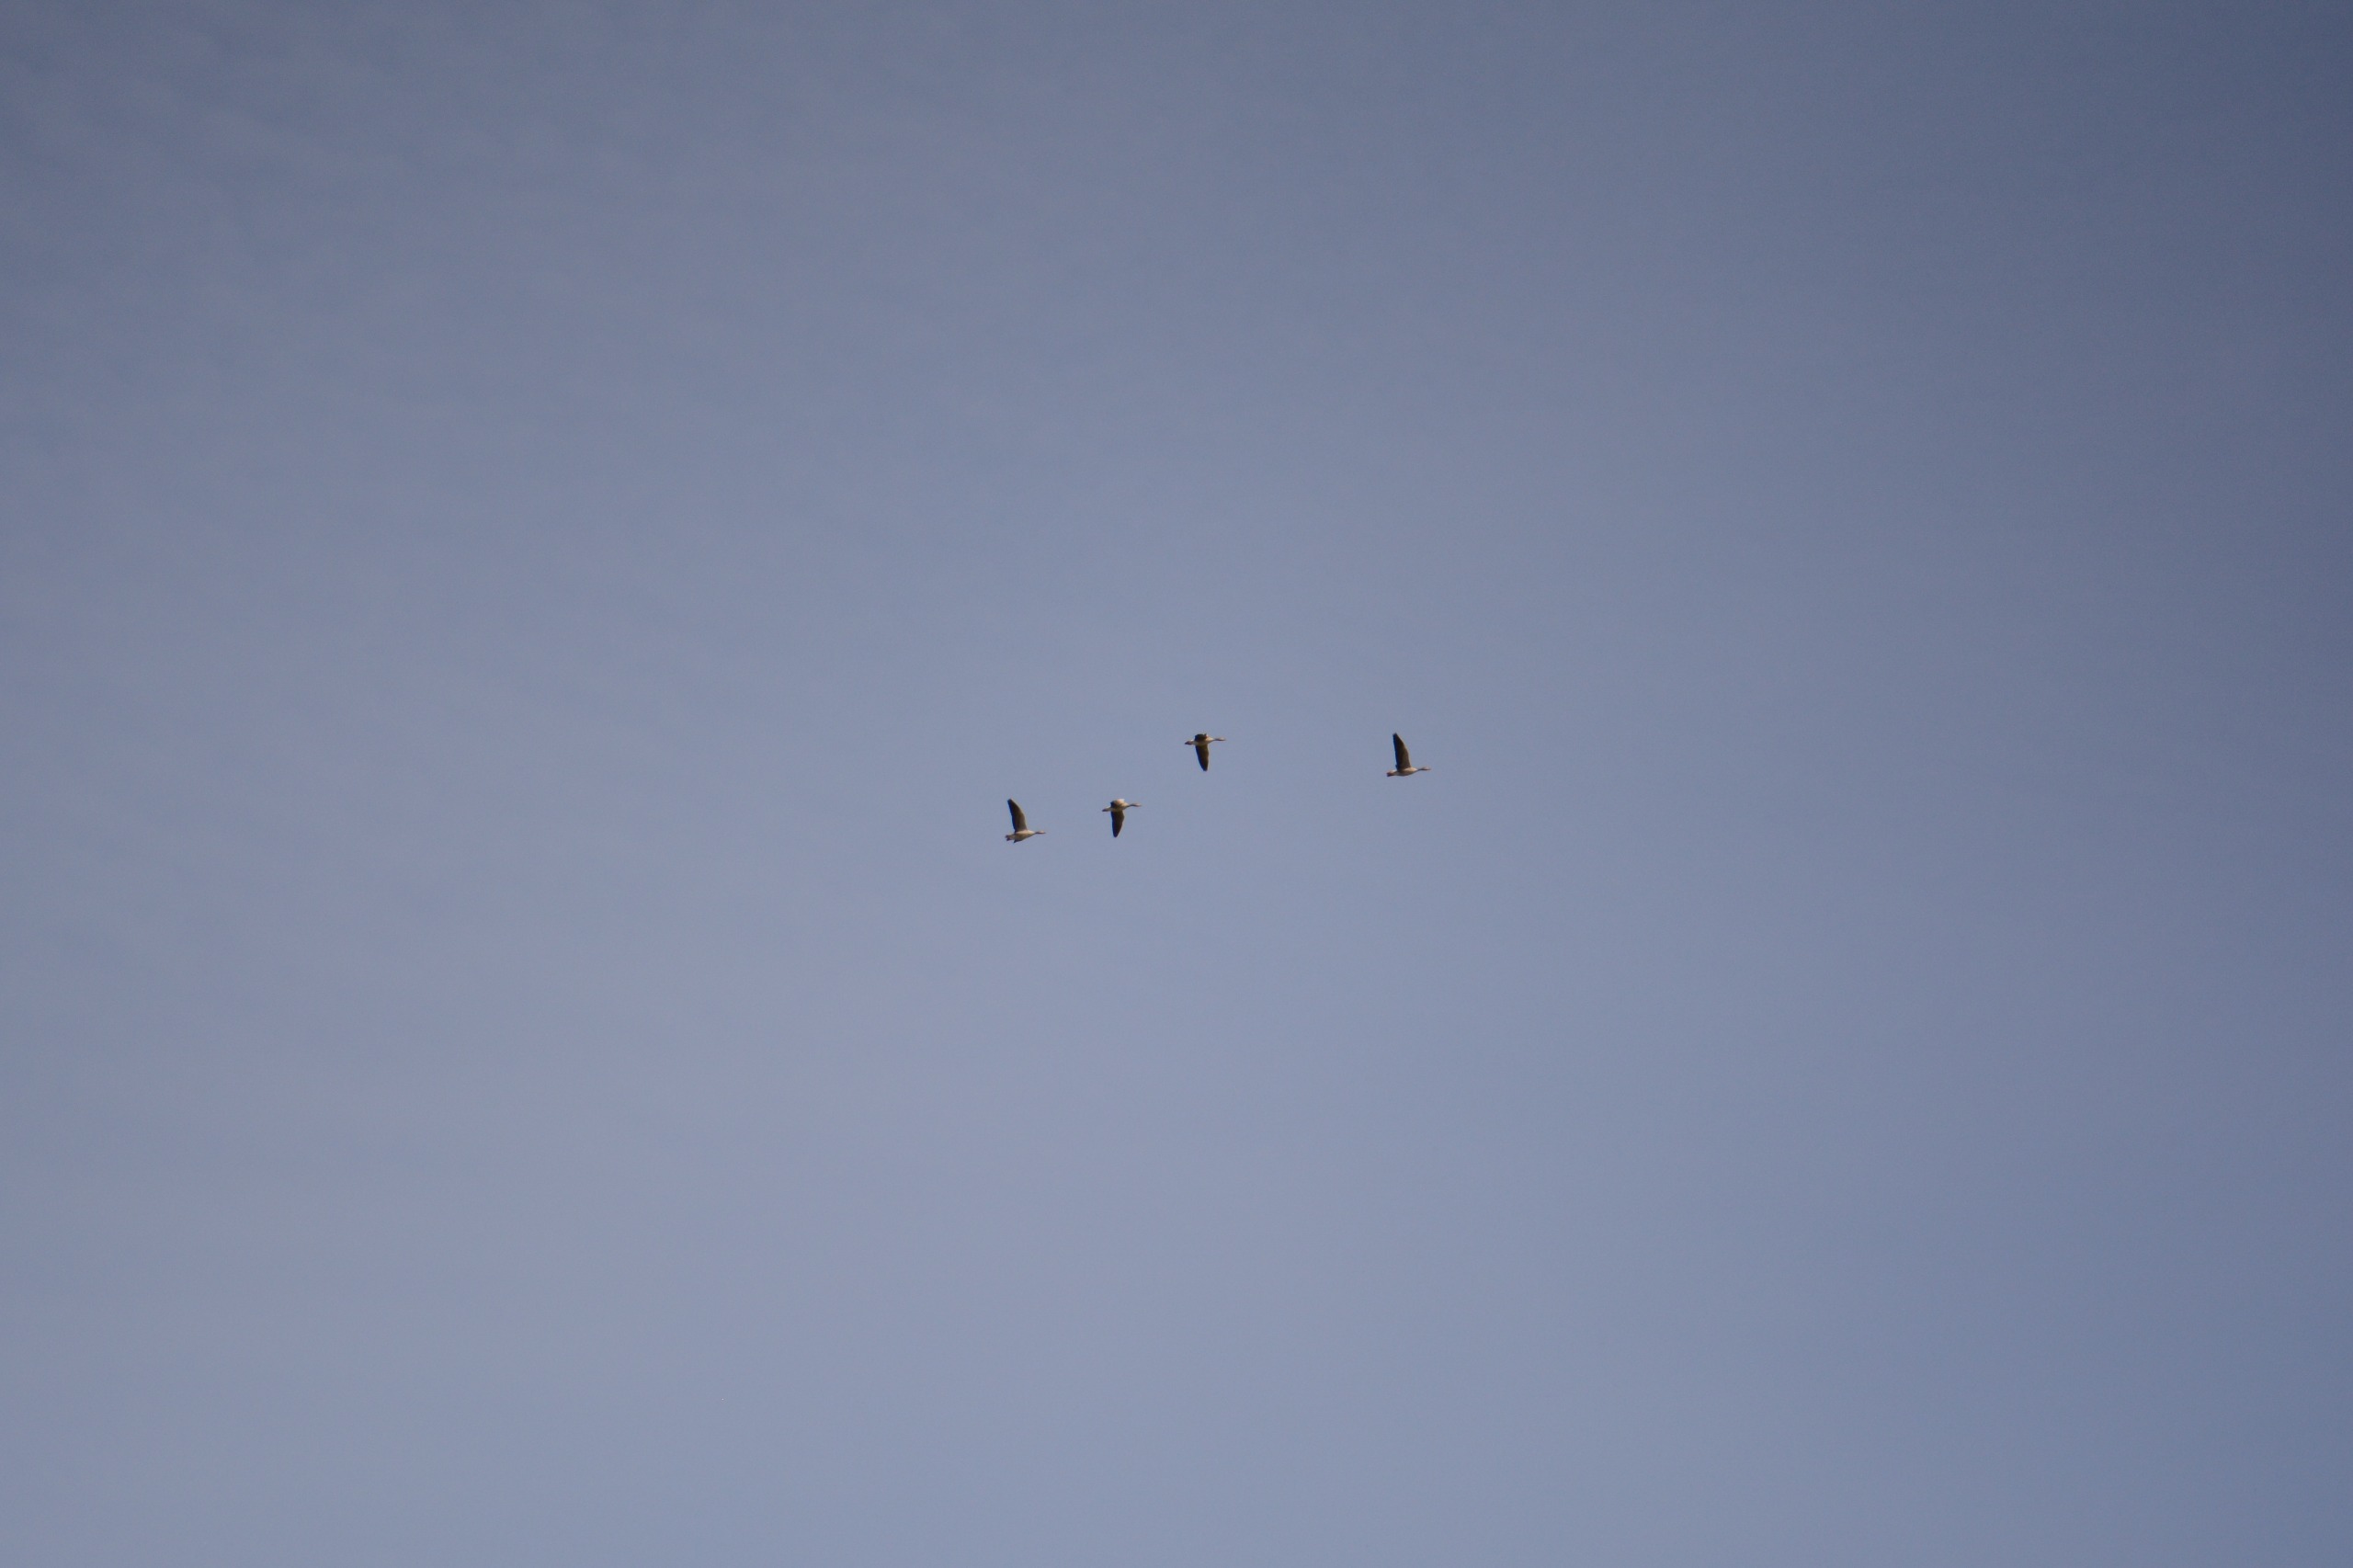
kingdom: Animalia
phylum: Chordata
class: Aves
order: Anseriformes
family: Anatidae
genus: Anser
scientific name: Anser anser
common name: Grågås
